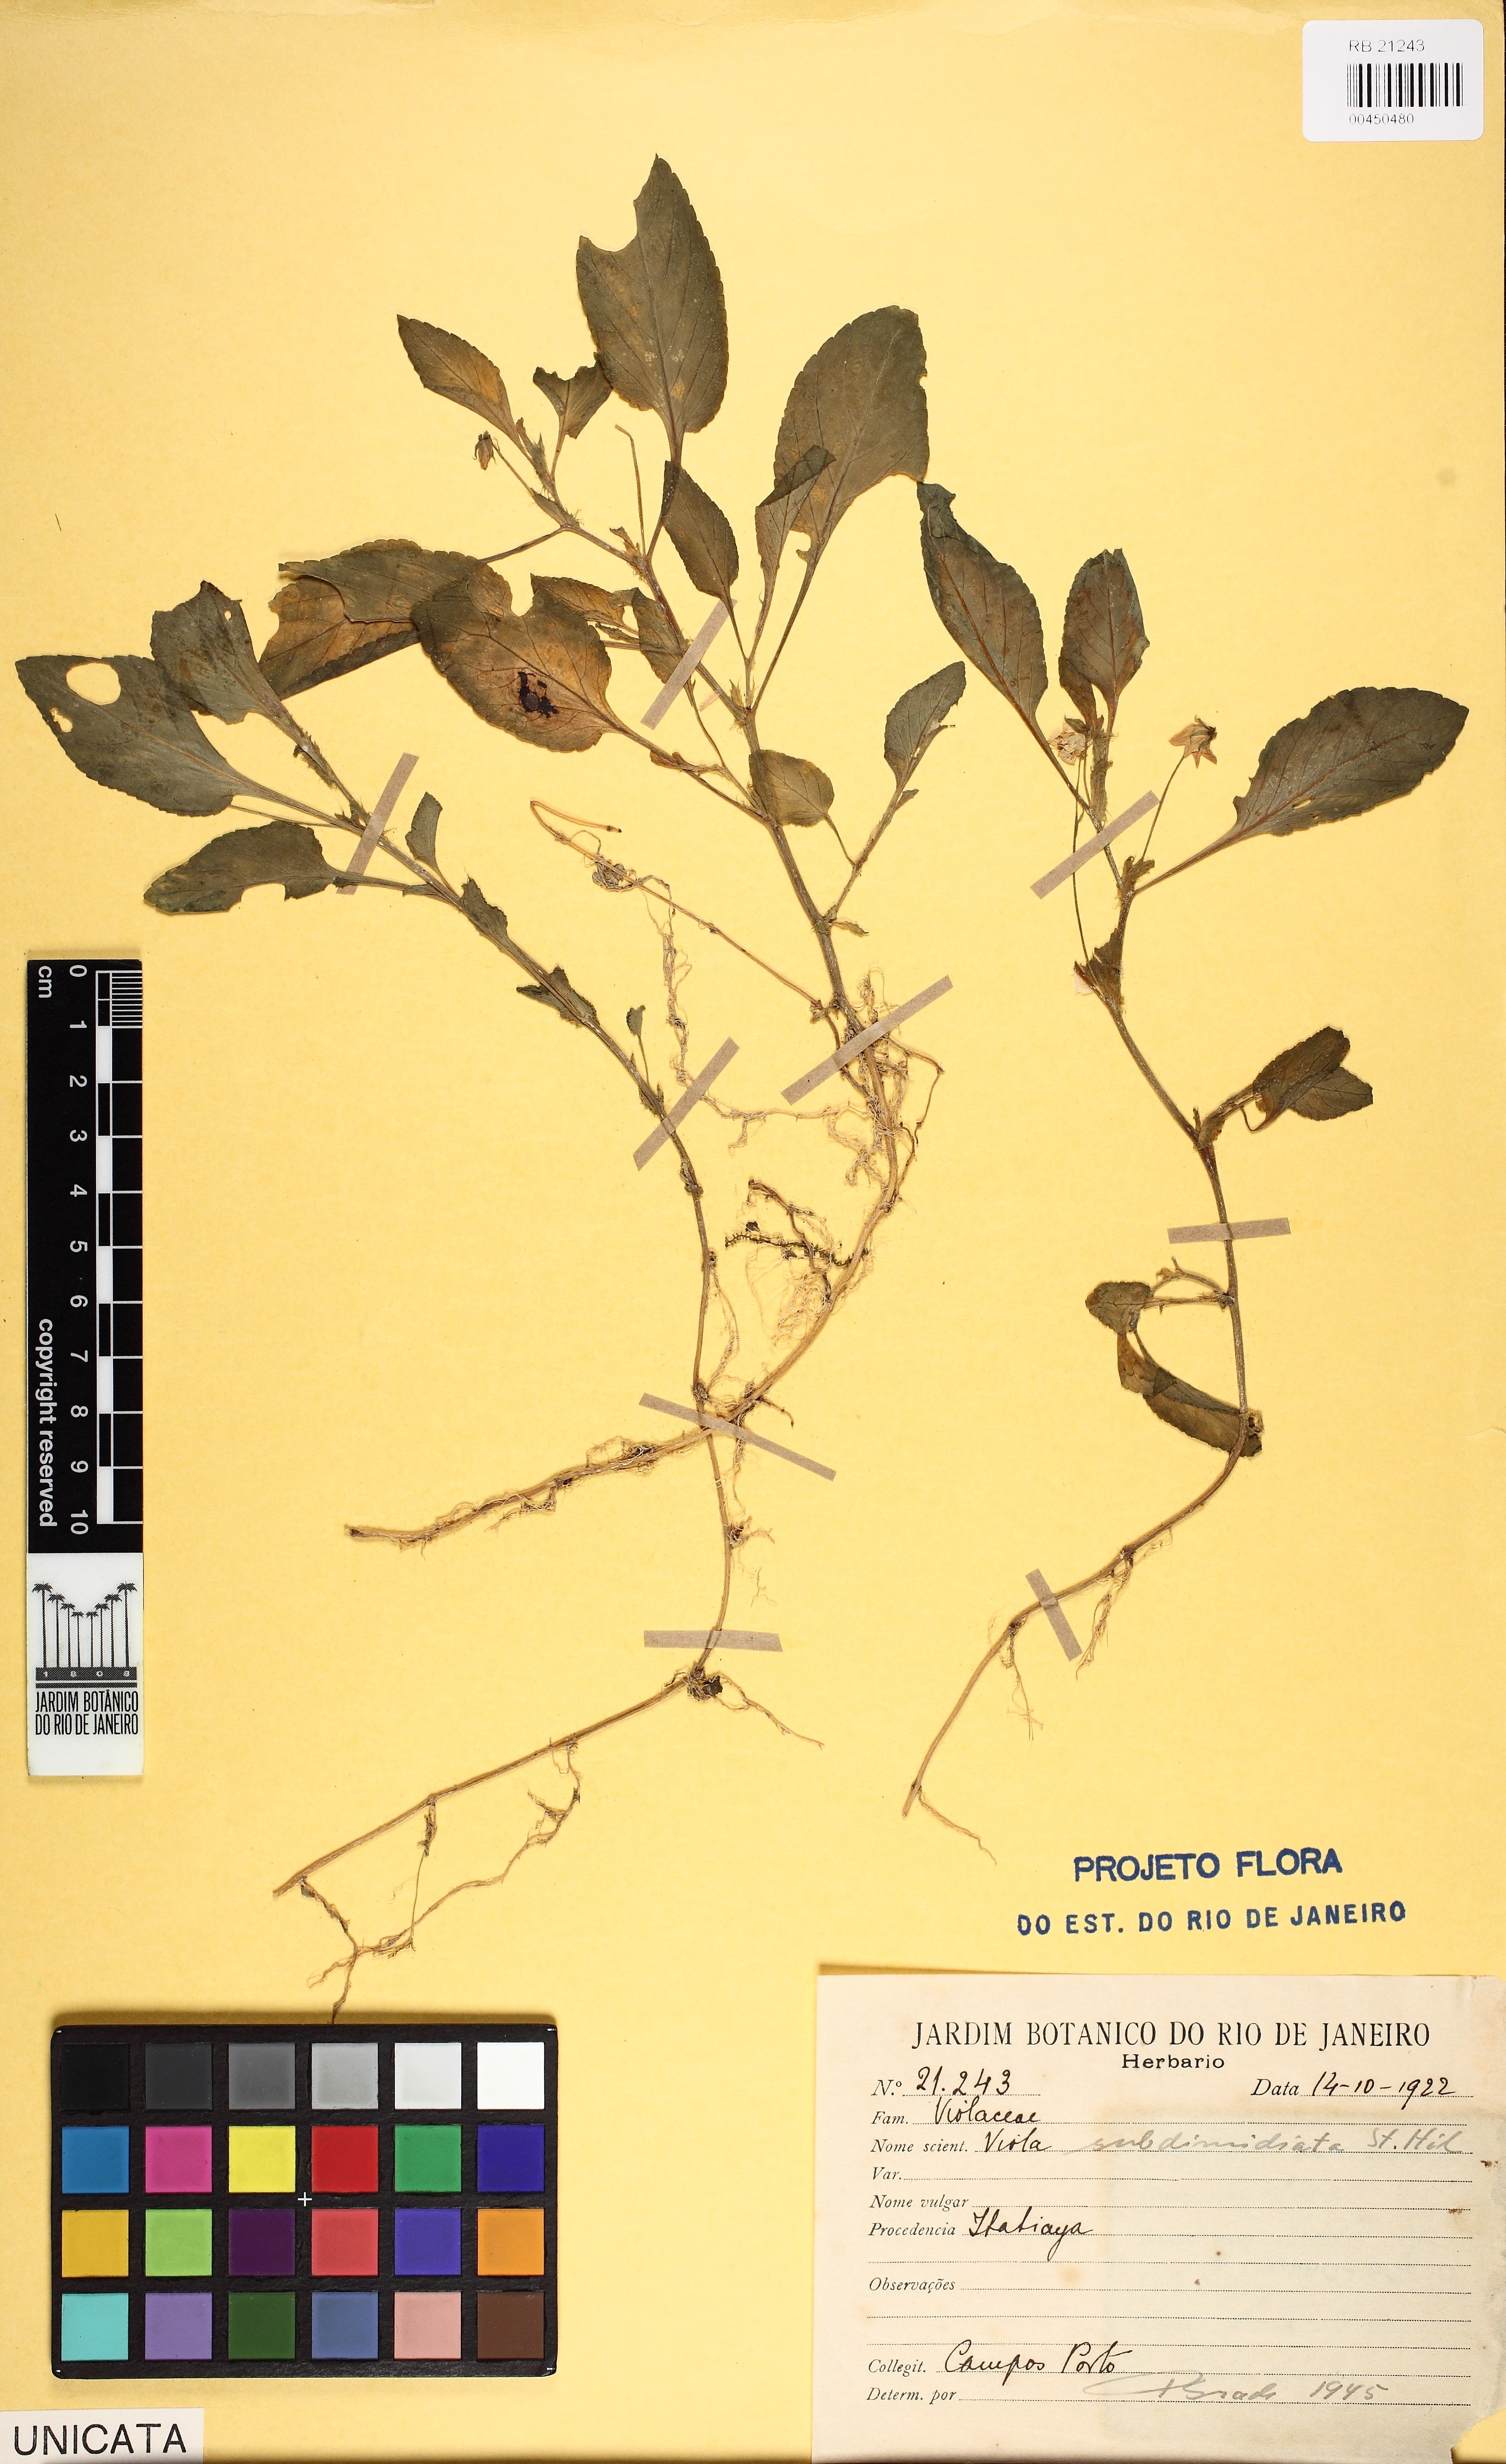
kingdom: Plantae
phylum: Tracheophyta
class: Magnoliopsida
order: Malpighiales
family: Violaceae
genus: Viola
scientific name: Viola subdimidiata
